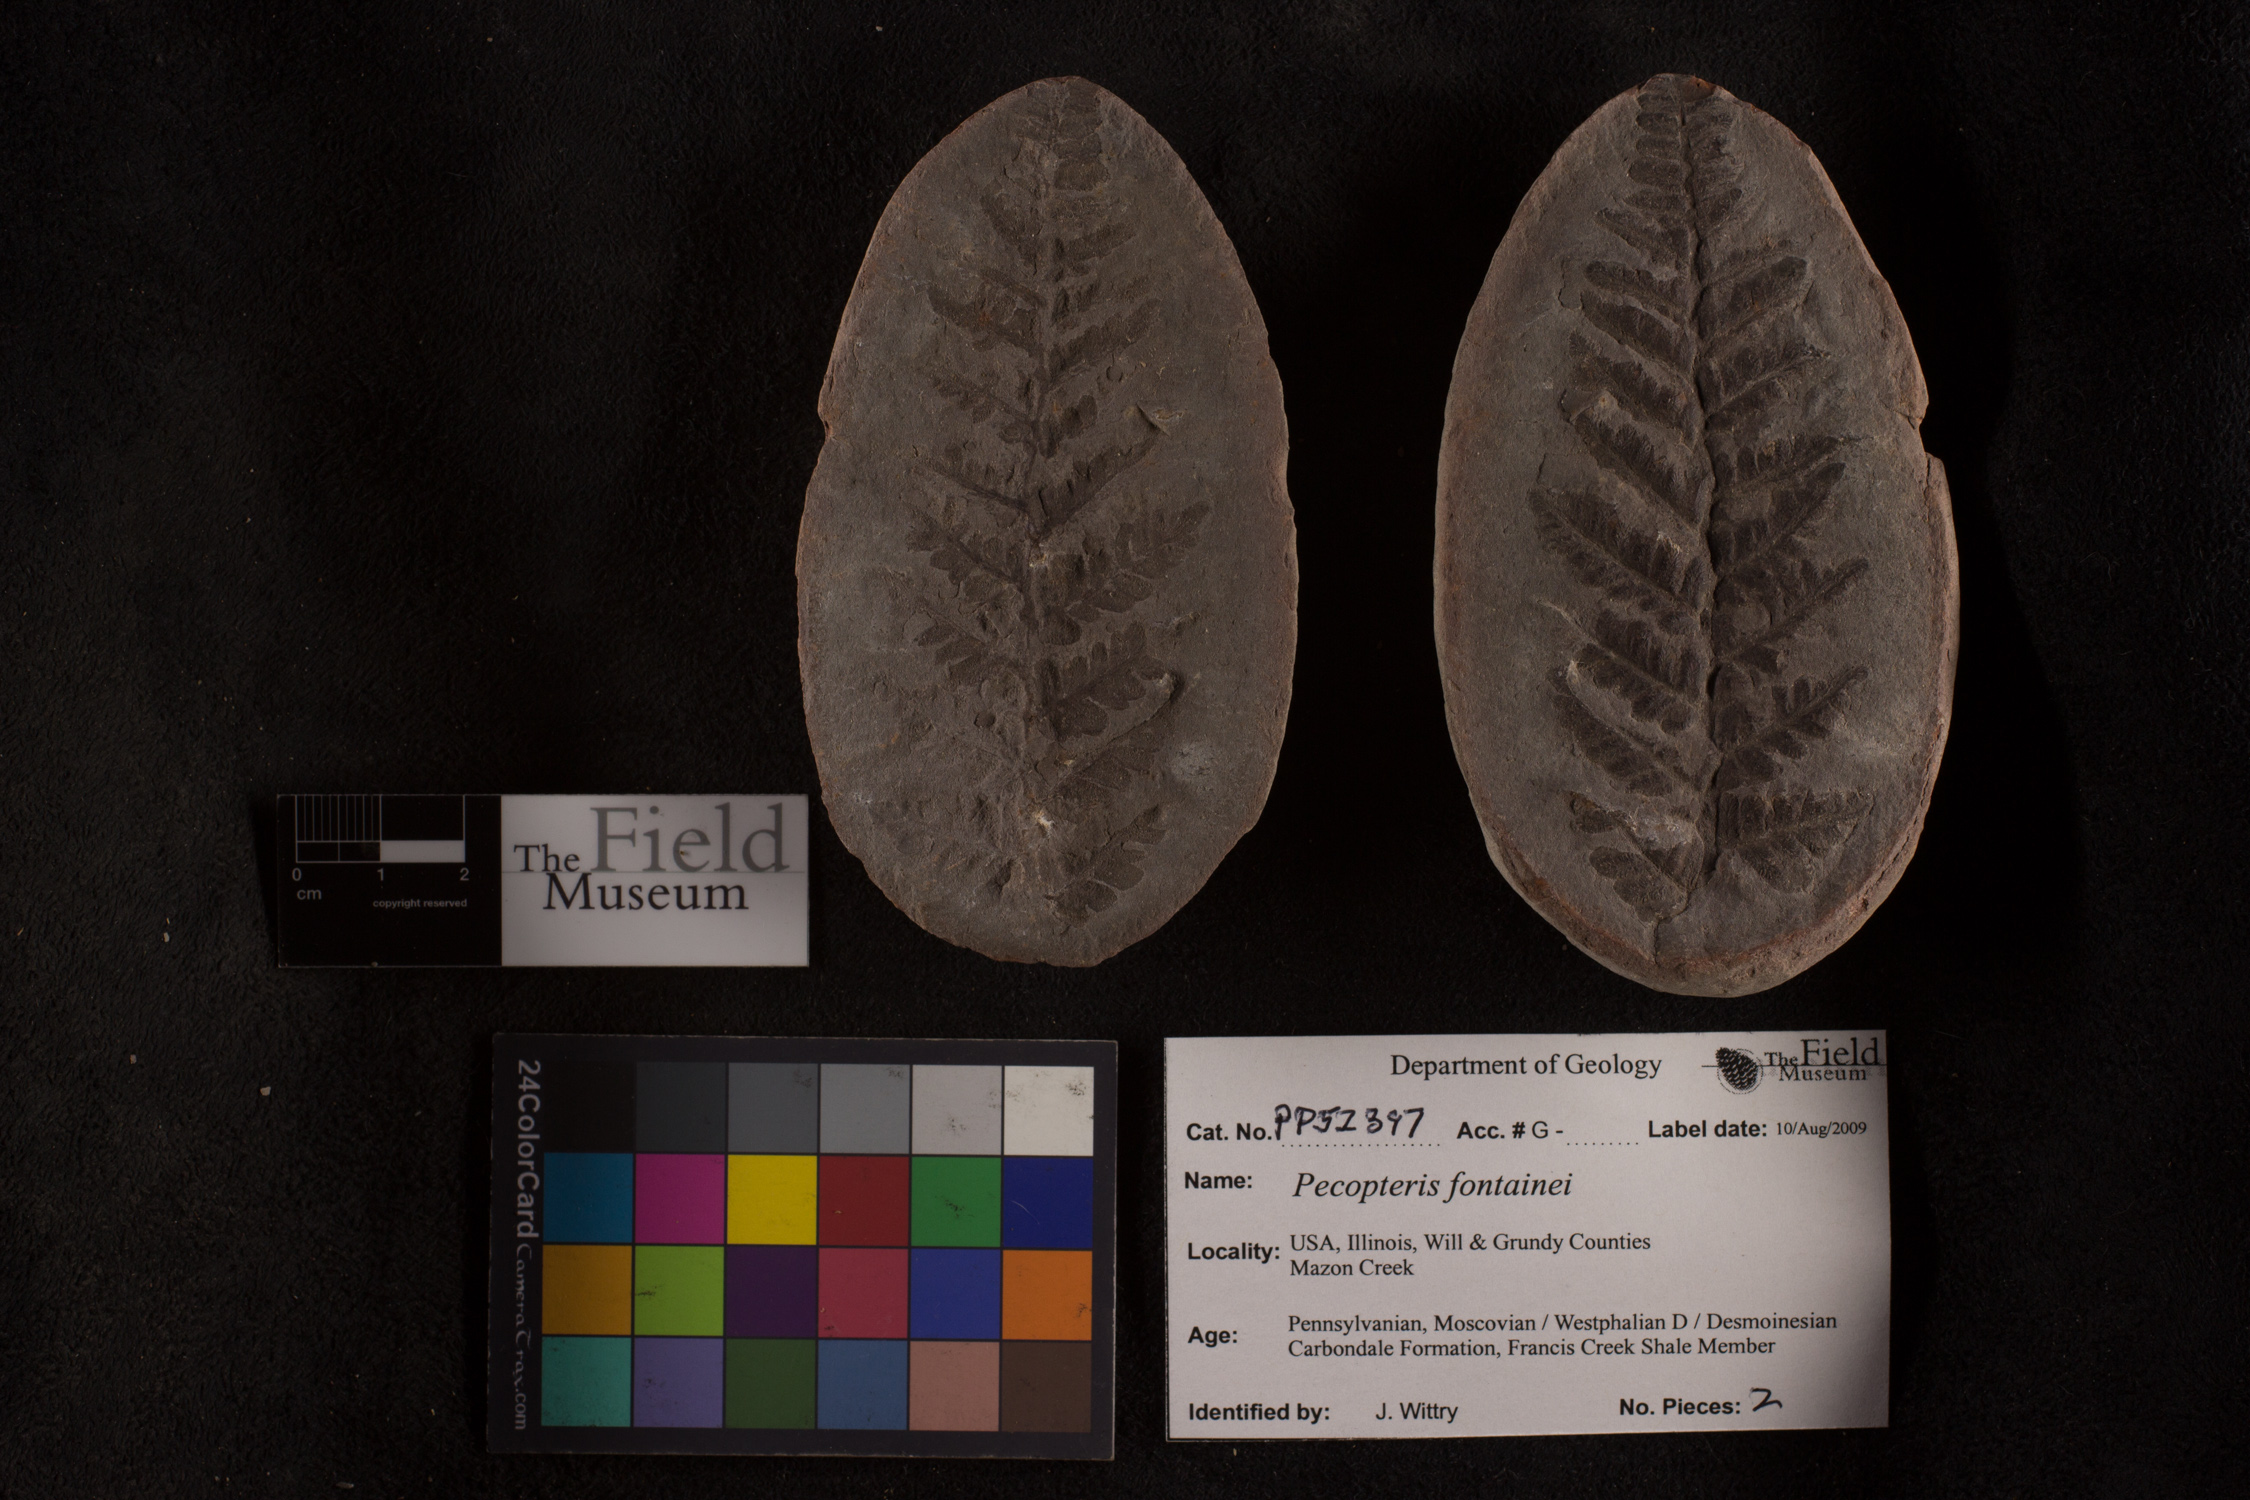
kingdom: Plantae
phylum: Tracheophyta
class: Polypodiopsida
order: Marattiales
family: Asterothecaceae
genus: Pecopteris
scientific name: Pecopteris
